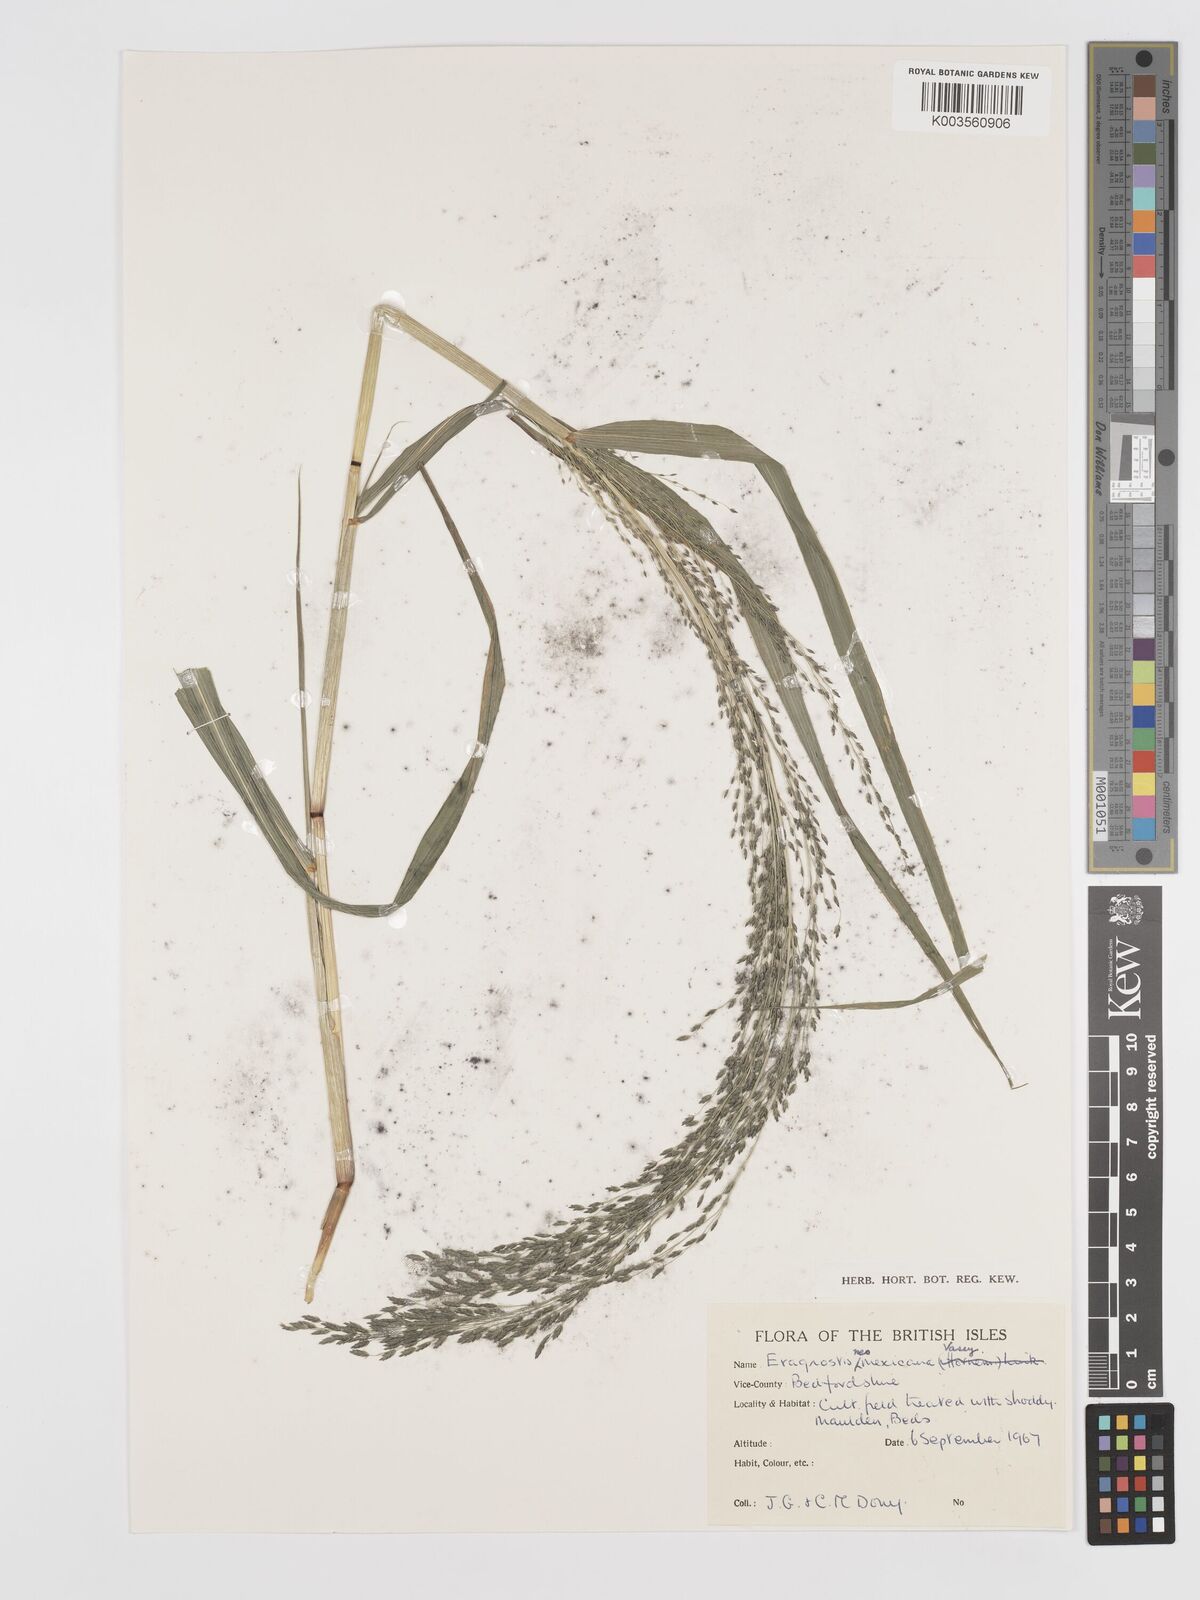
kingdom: Plantae
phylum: Tracheophyta
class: Liliopsida
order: Poales
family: Poaceae
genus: Eragrostis
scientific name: Eragrostis mexicana
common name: Mexican love grass
